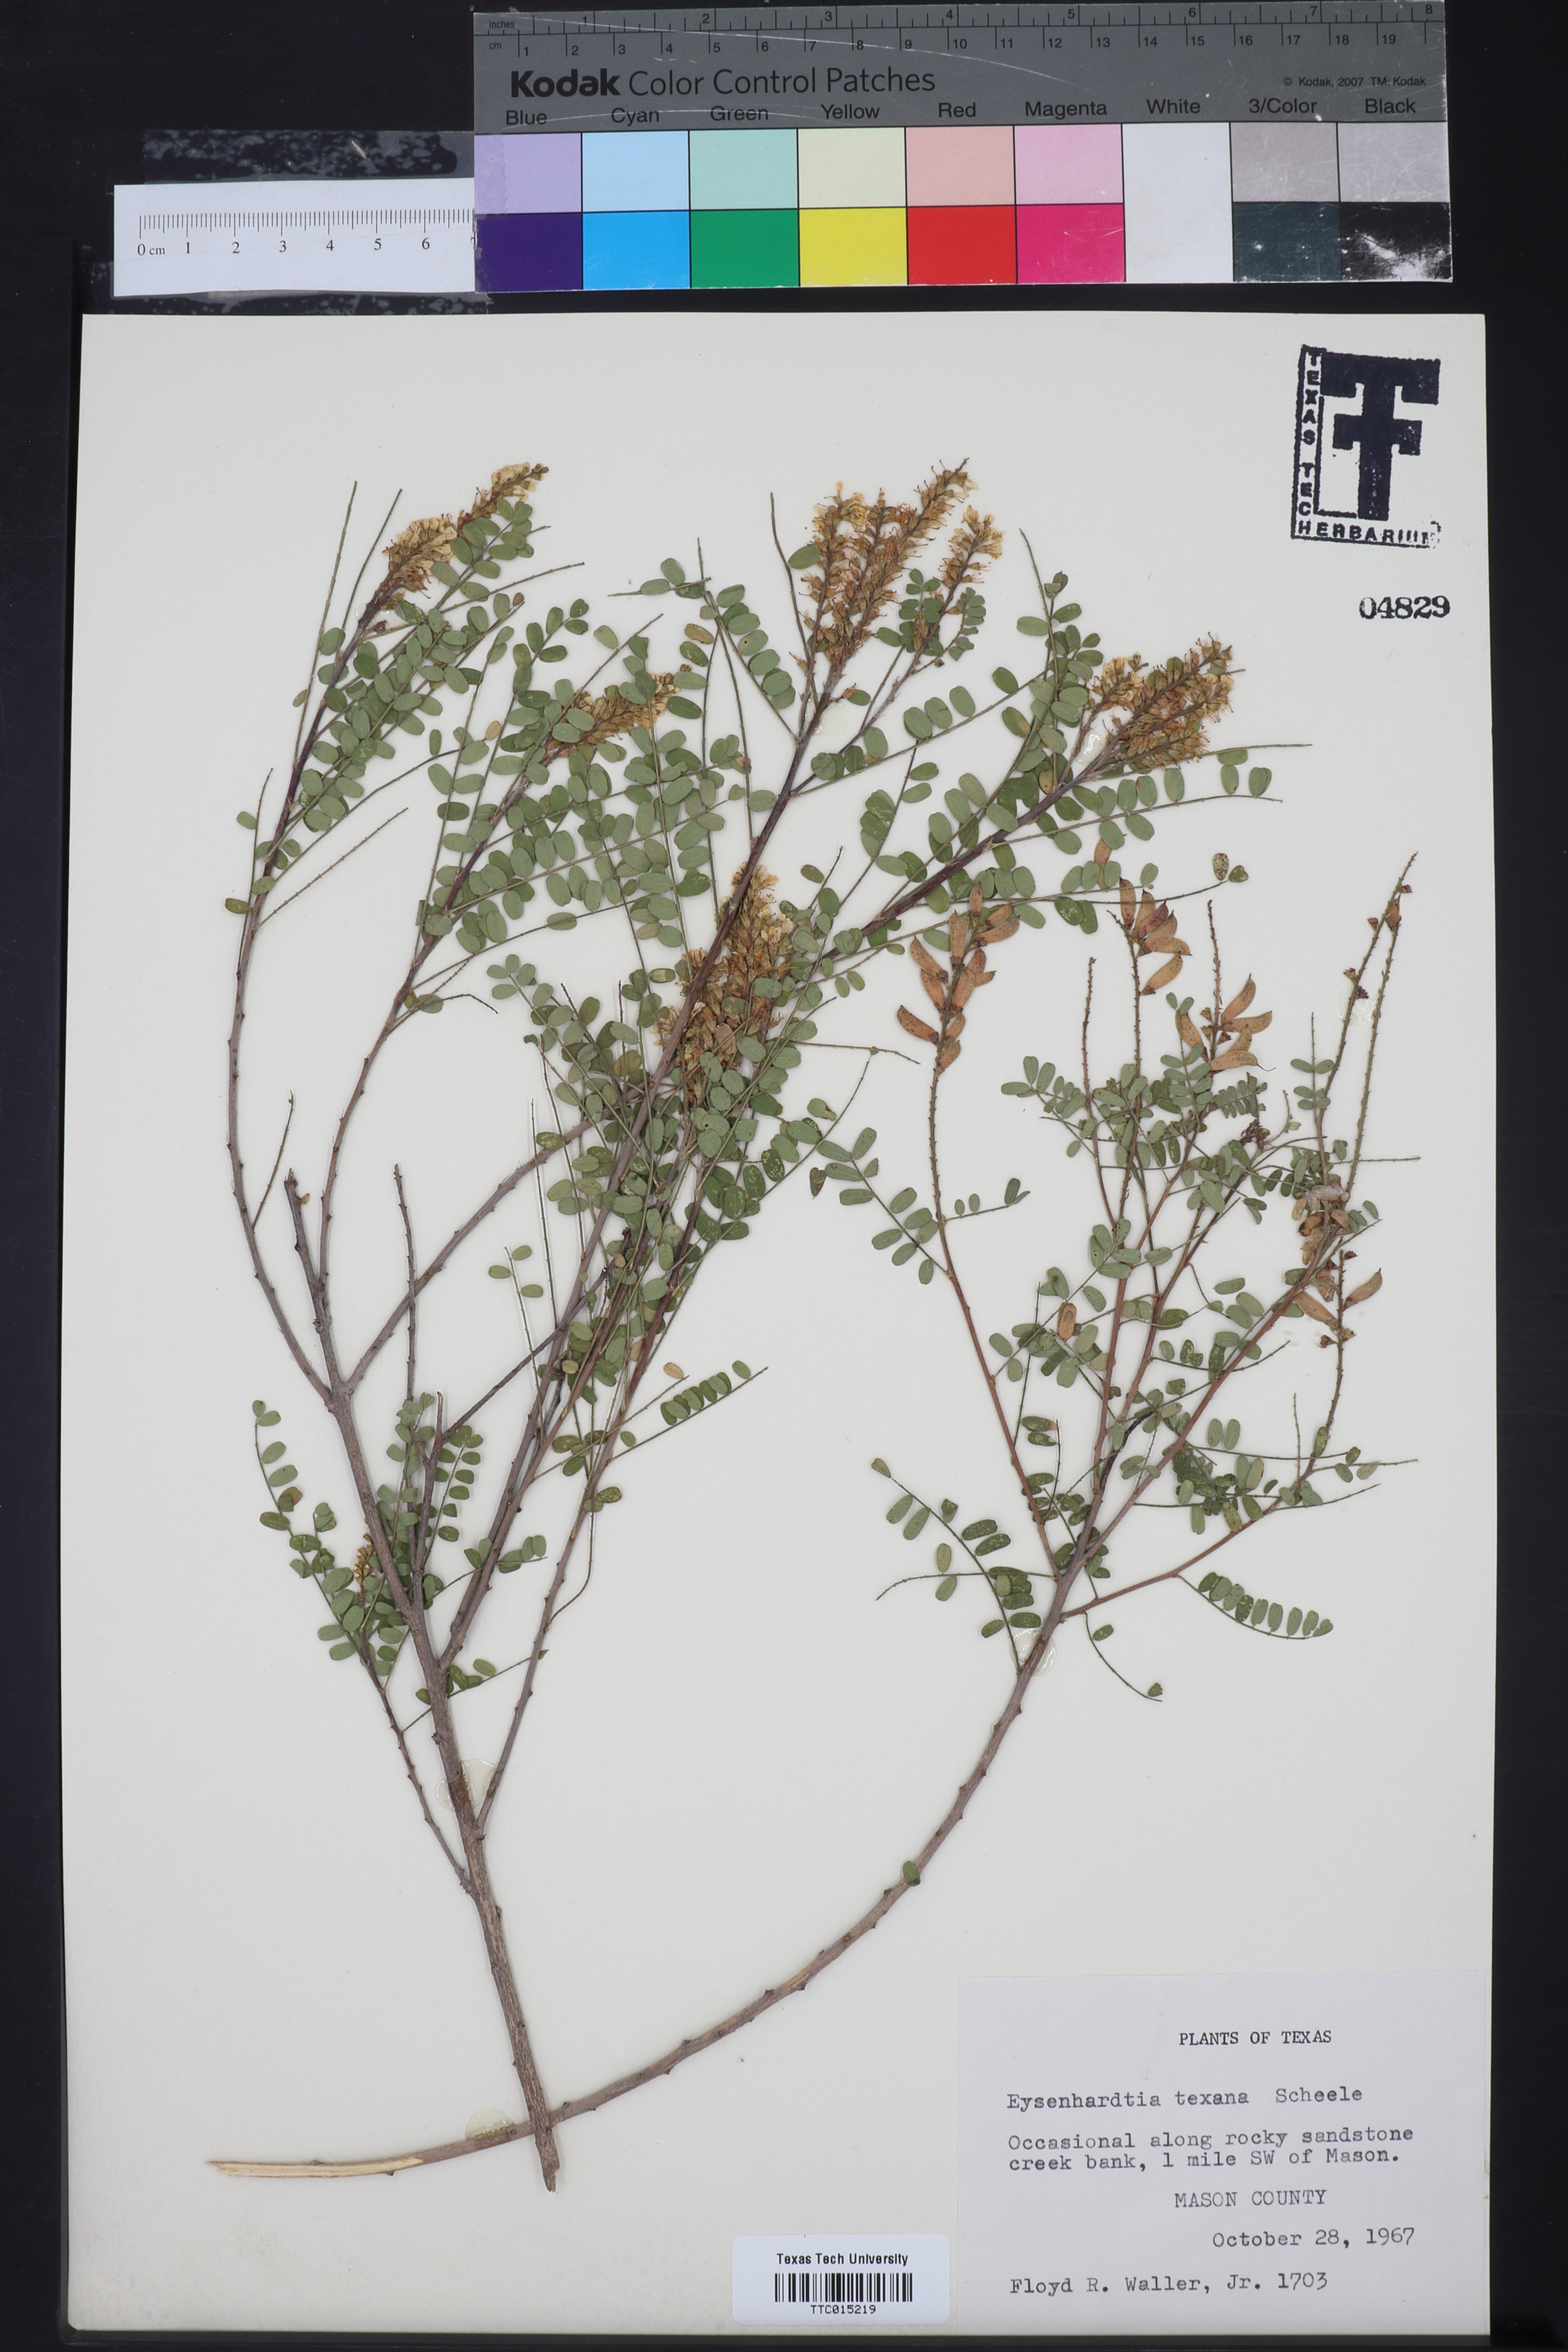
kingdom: Plantae
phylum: Tracheophyta
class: Magnoliopsida
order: Fabales
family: Fabaceae
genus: Eysenhardtia
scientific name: Eysenhardtia texana
